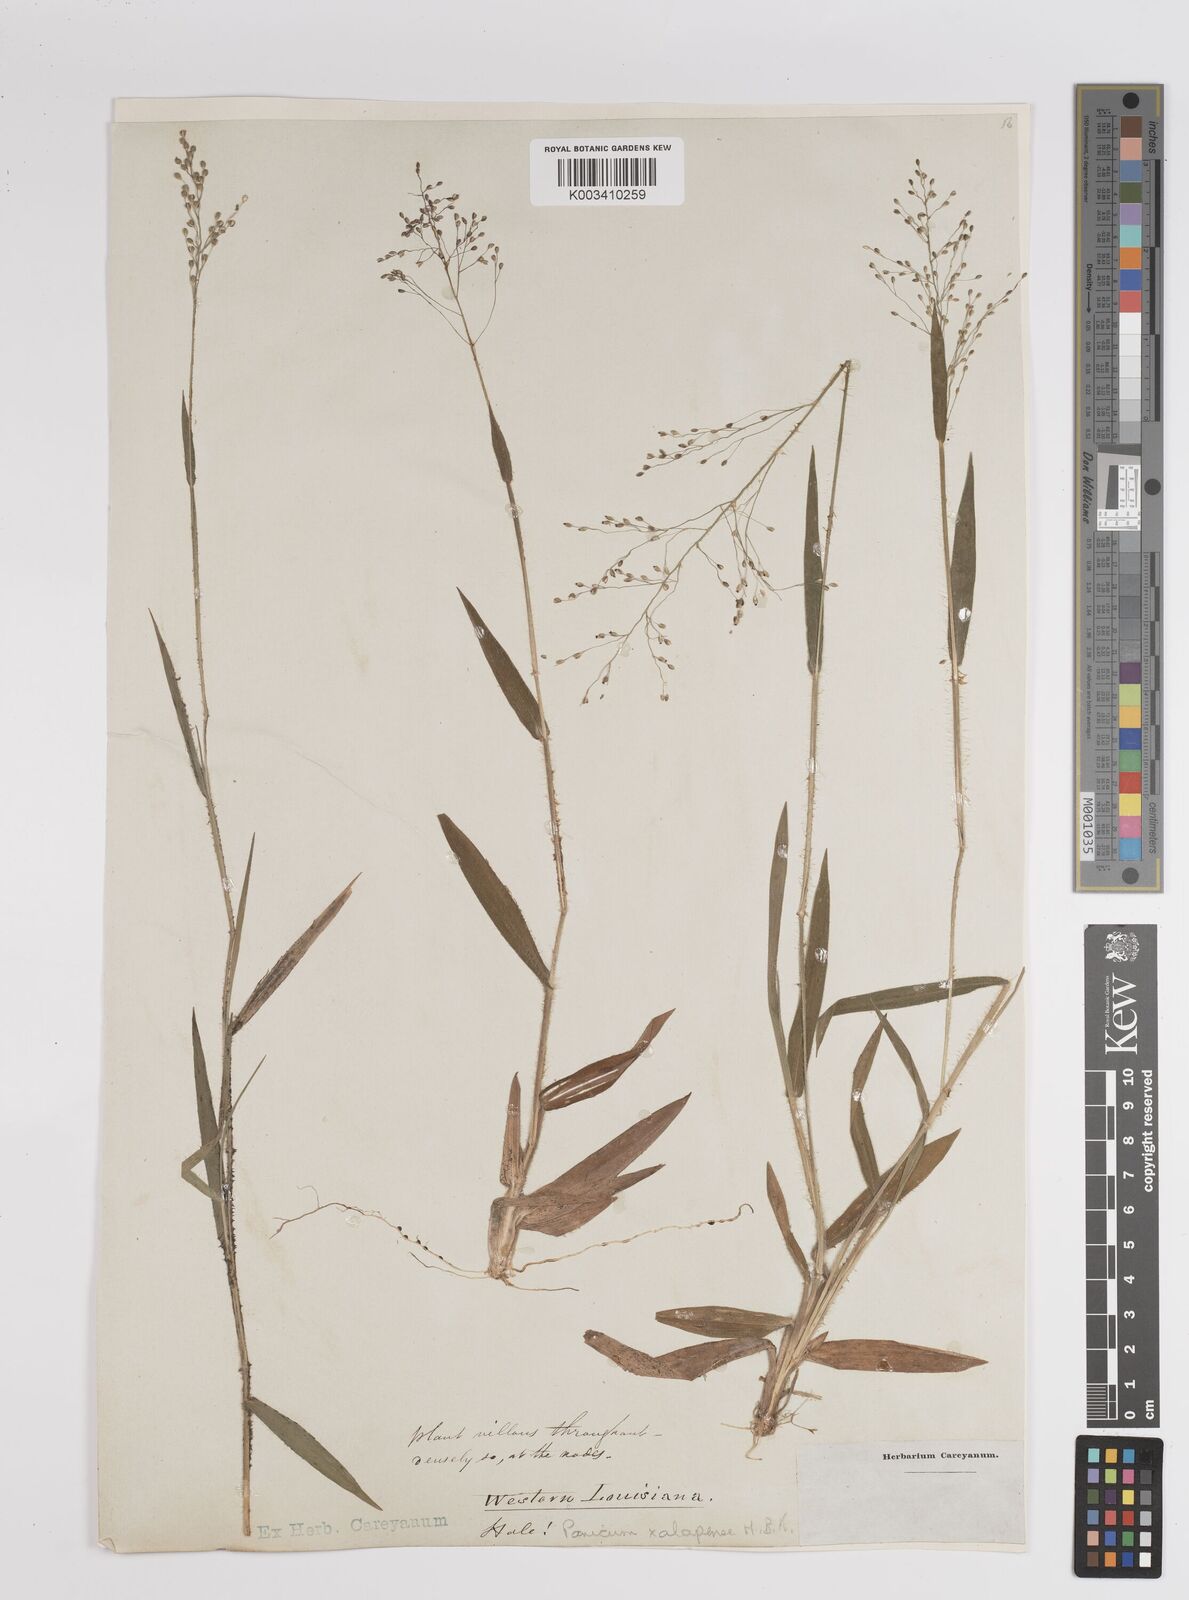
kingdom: Plantae
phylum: Tracheophyta
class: Liliopsida
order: Poales
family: Poaceae
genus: Dichanthelium
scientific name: Dichanthelium laxiflorum
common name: Soft-tuft panic grass
